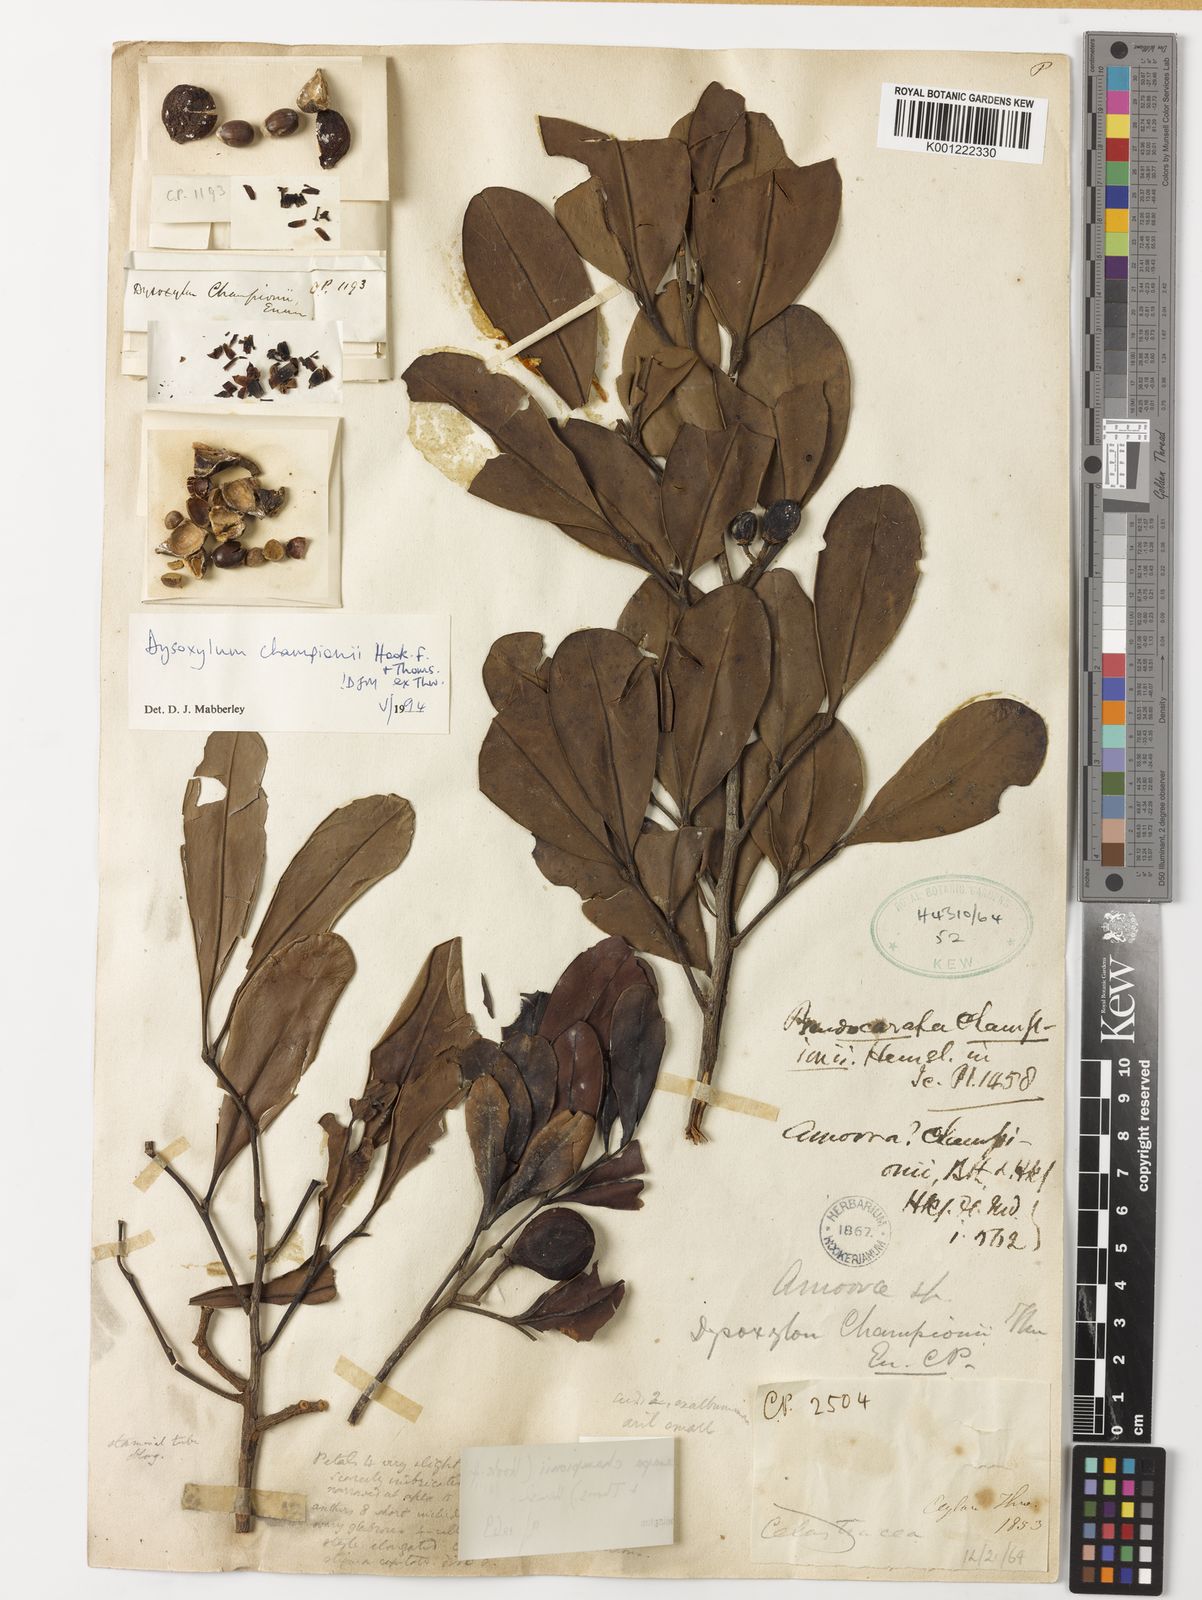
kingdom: Plantae
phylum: Tracheophyta
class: Magnoliopsida
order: Sapindales
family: Meliaceae
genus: Pseudocarapa
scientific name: Pseudocarapa championii
